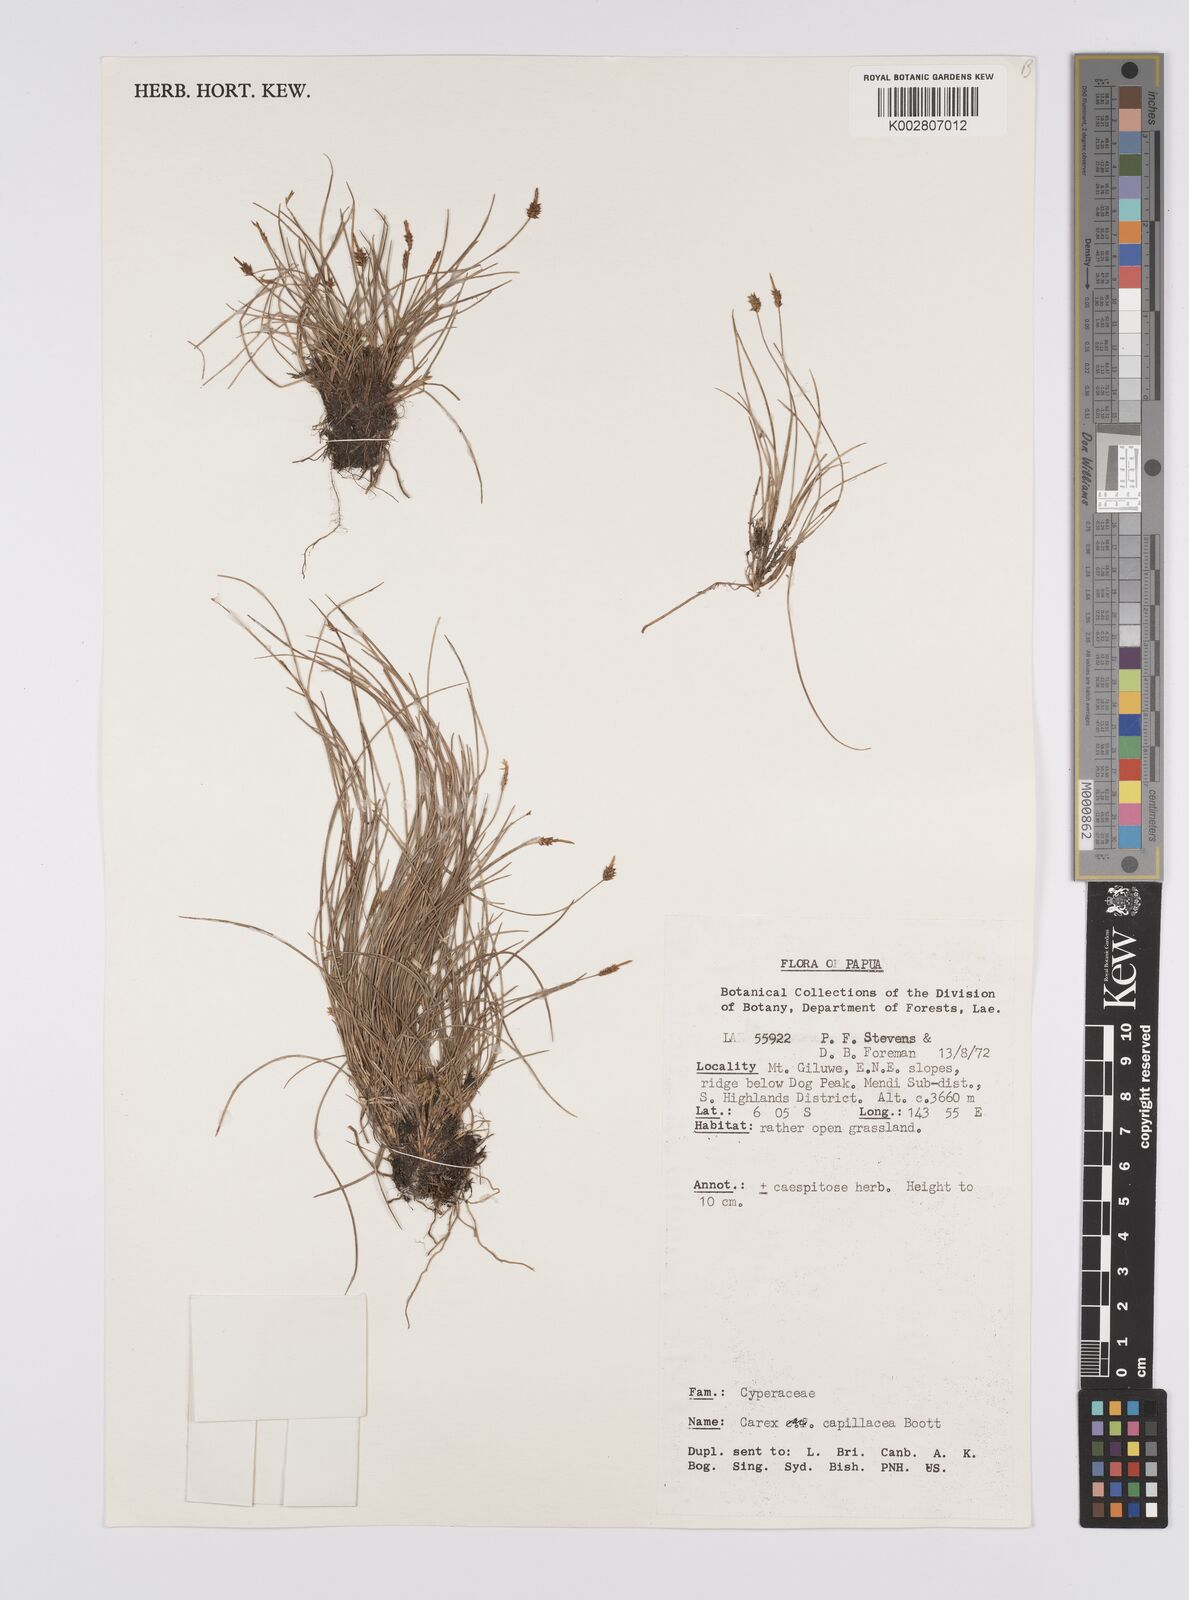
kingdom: Plantae
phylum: Tracheophyta
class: Liliopsida
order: Poales
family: Cyperaceae
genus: Carex
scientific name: Carex capillacea
